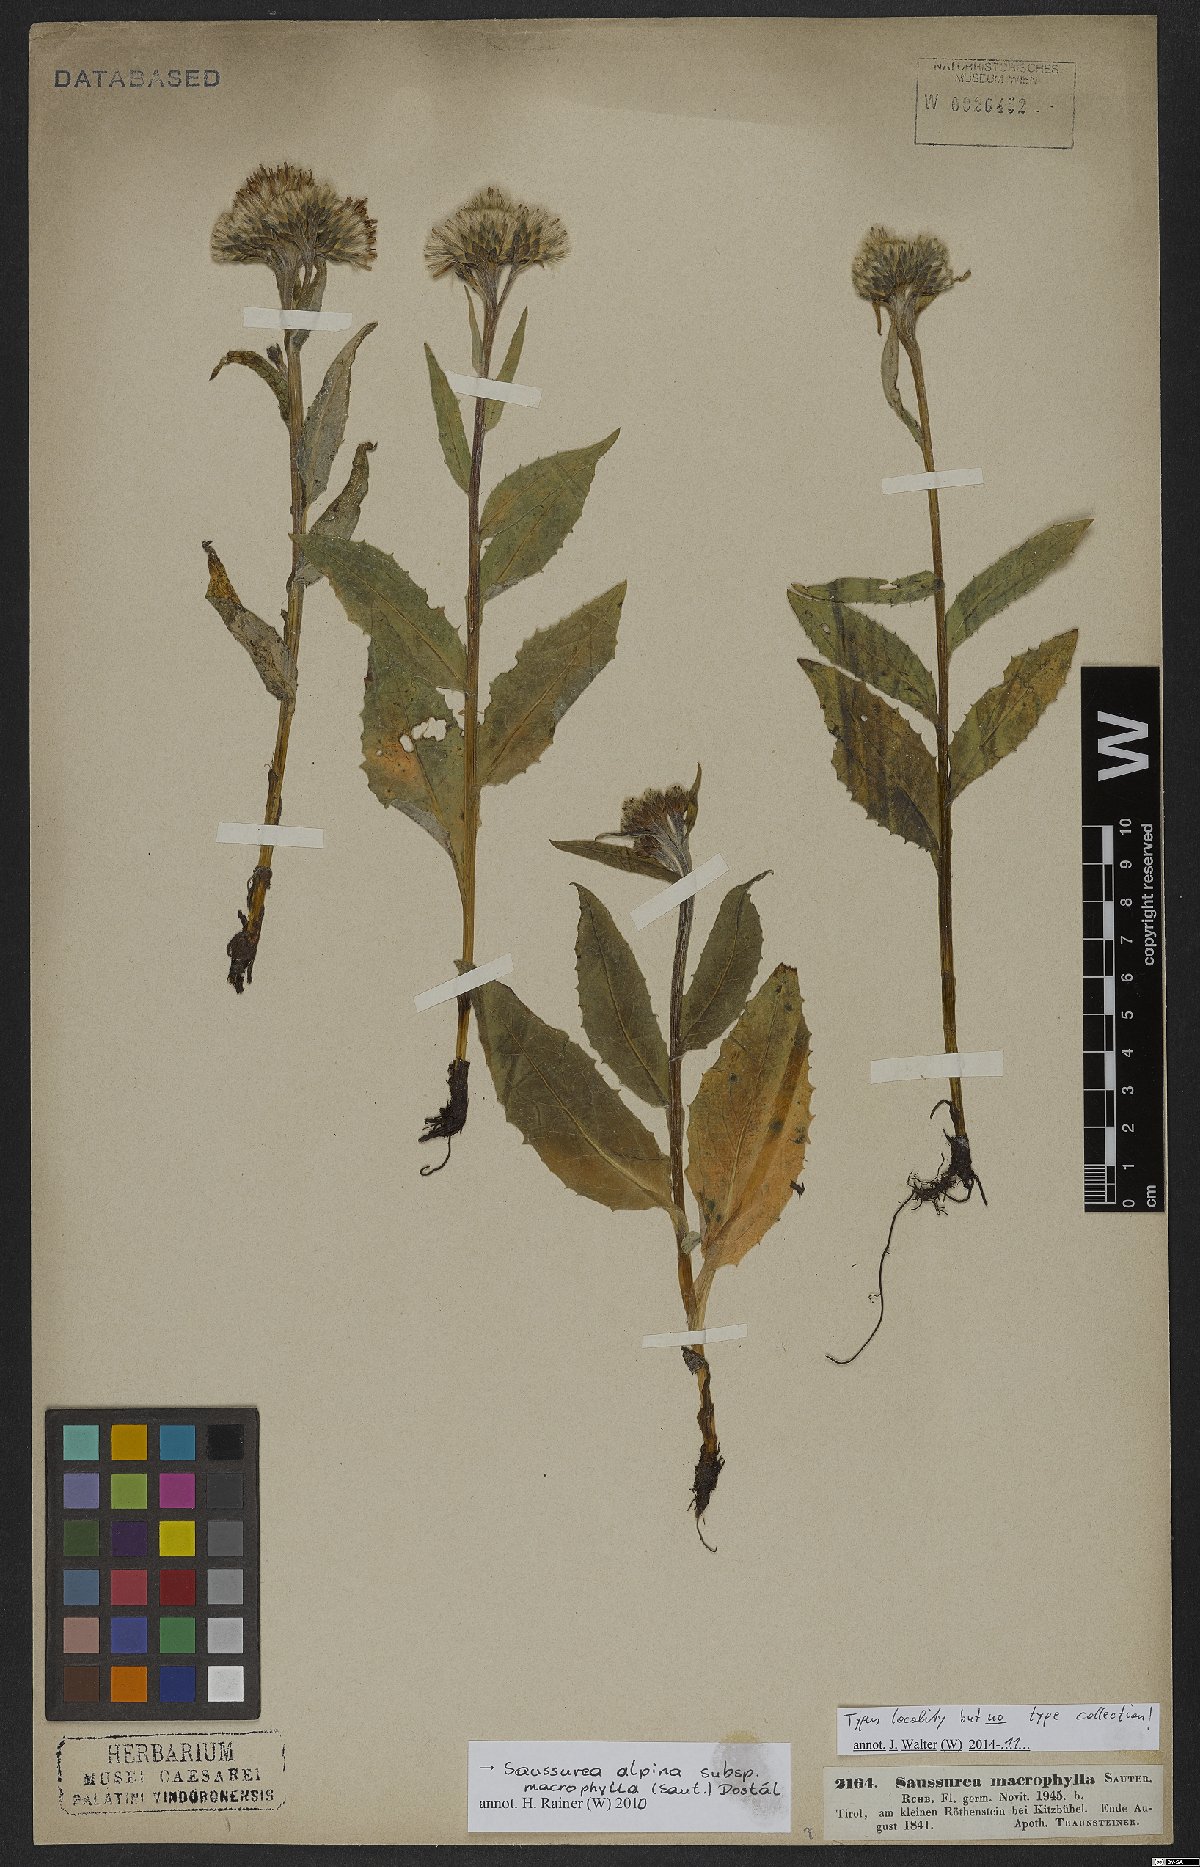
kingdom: Plantae
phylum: Tracheophyta
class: Magnoliopsida
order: Asterales
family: Asteraceae
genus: Saussurea
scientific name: Saussurea alpina
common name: Alpine saw-wort
